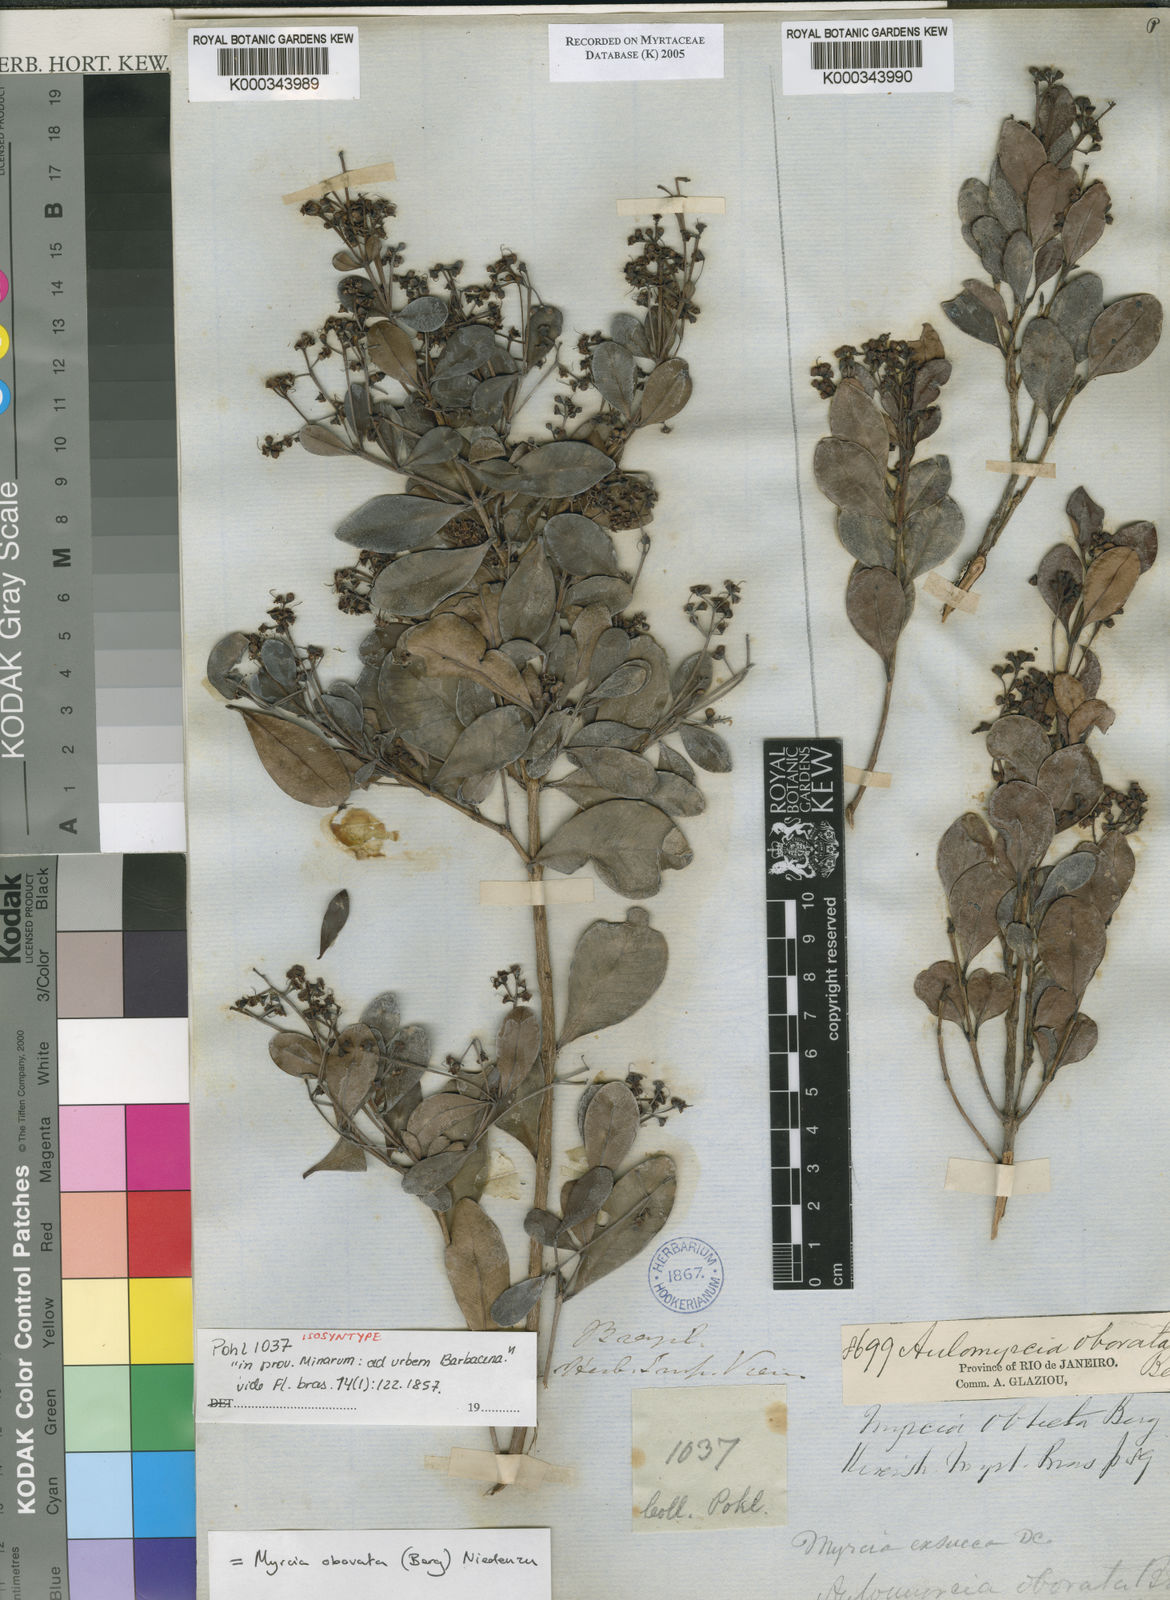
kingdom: Plantae
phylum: Tracheophyta
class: Magnoliopsida
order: Myrtales
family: Myrtaceae
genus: Myrcia
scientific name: Myrcia guianensis
